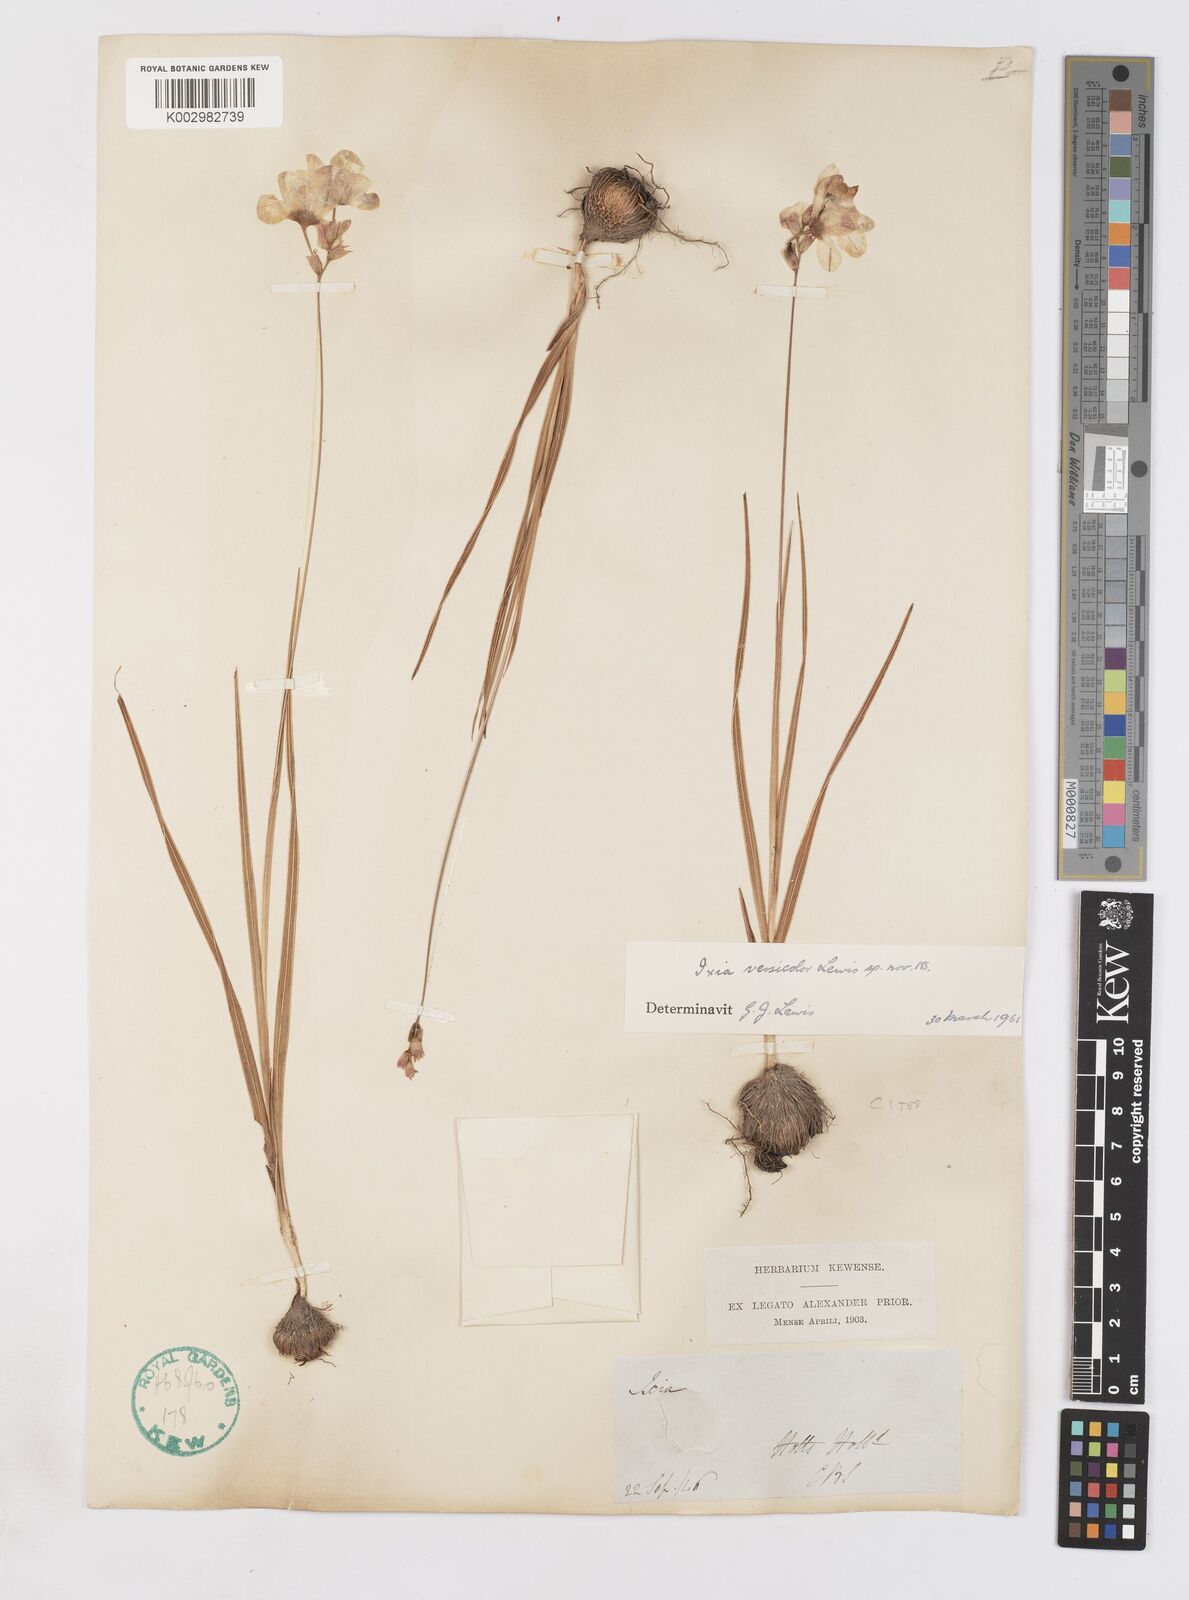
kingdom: Plantae
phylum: Tracheophyta
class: Liliopsida
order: Asparagales
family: Iridaceae
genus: Ixia
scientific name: Ixia versicolor
